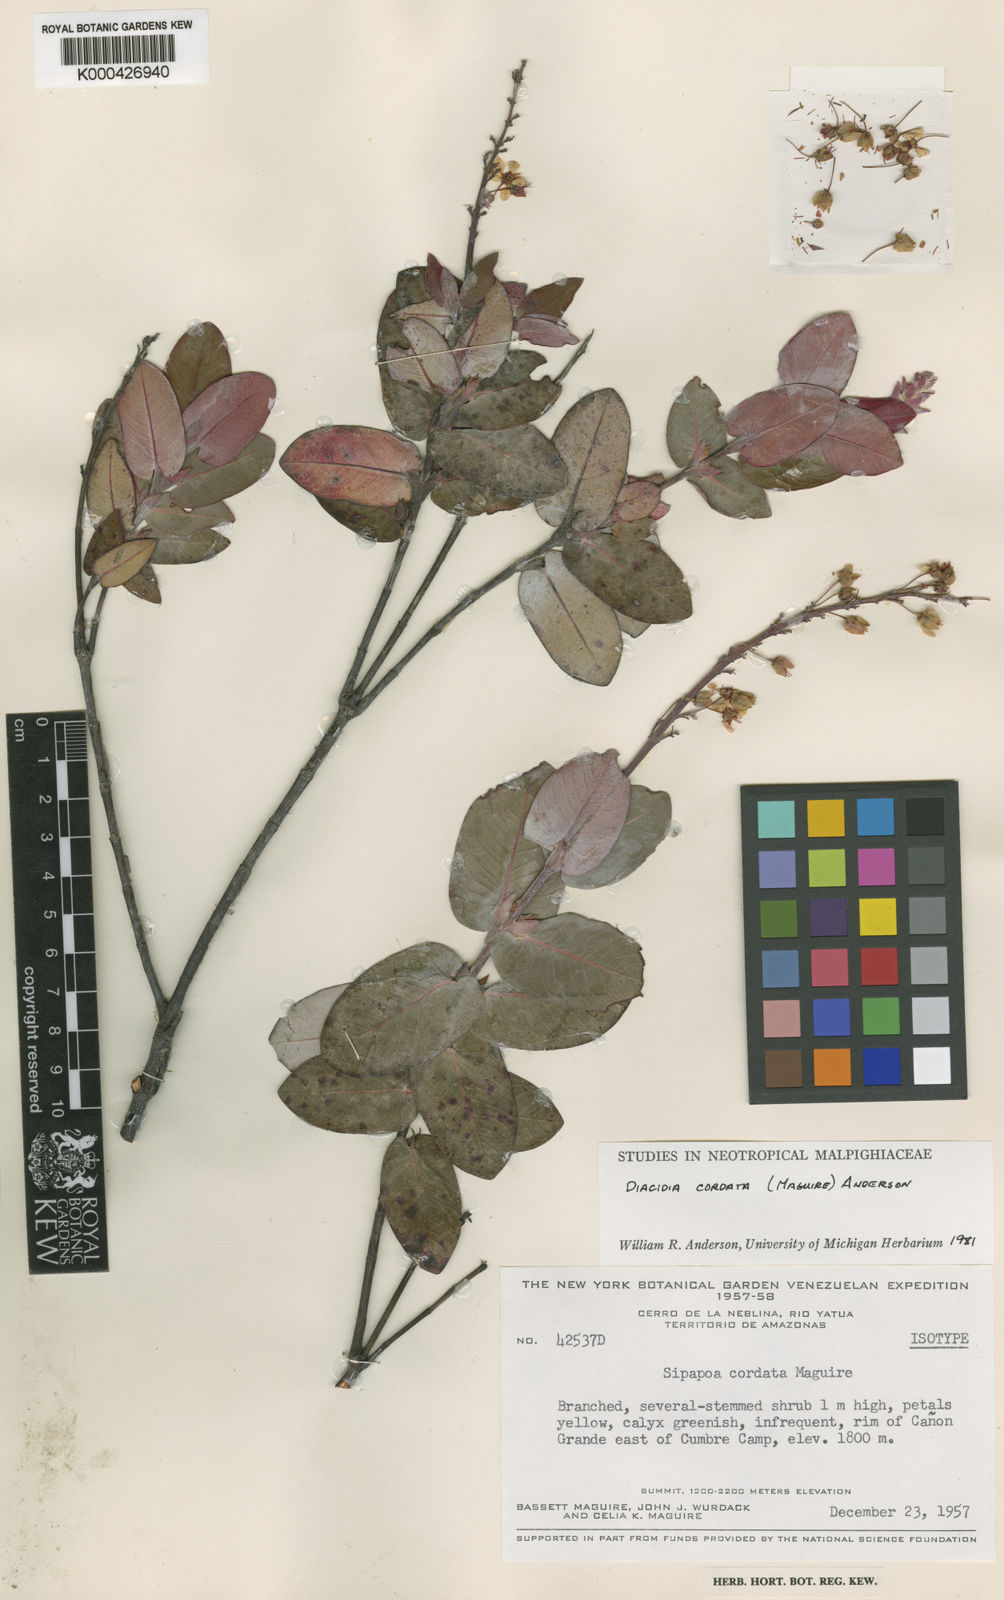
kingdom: Plantae
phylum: Tracheophyta
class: Magnoliopsida
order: Malpighiales
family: Malpighiaceae
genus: Diacidia
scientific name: Diacidia cordata
